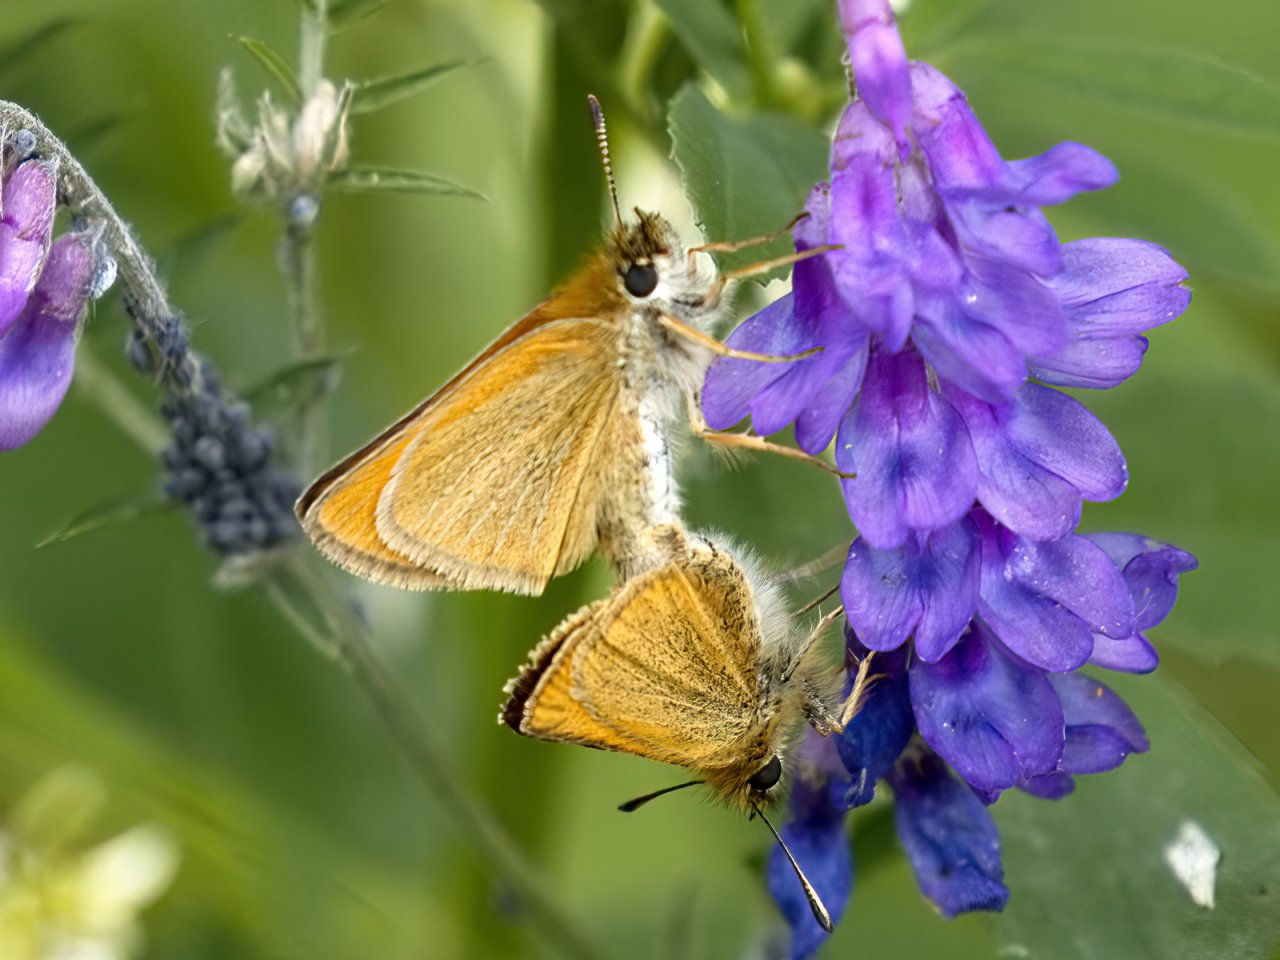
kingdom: Animalia
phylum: Arthropoda
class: Insecta
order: Lepidoptera
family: Hesperiidae
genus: Thymelicus
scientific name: Thymelicus lineola
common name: European Skipper
